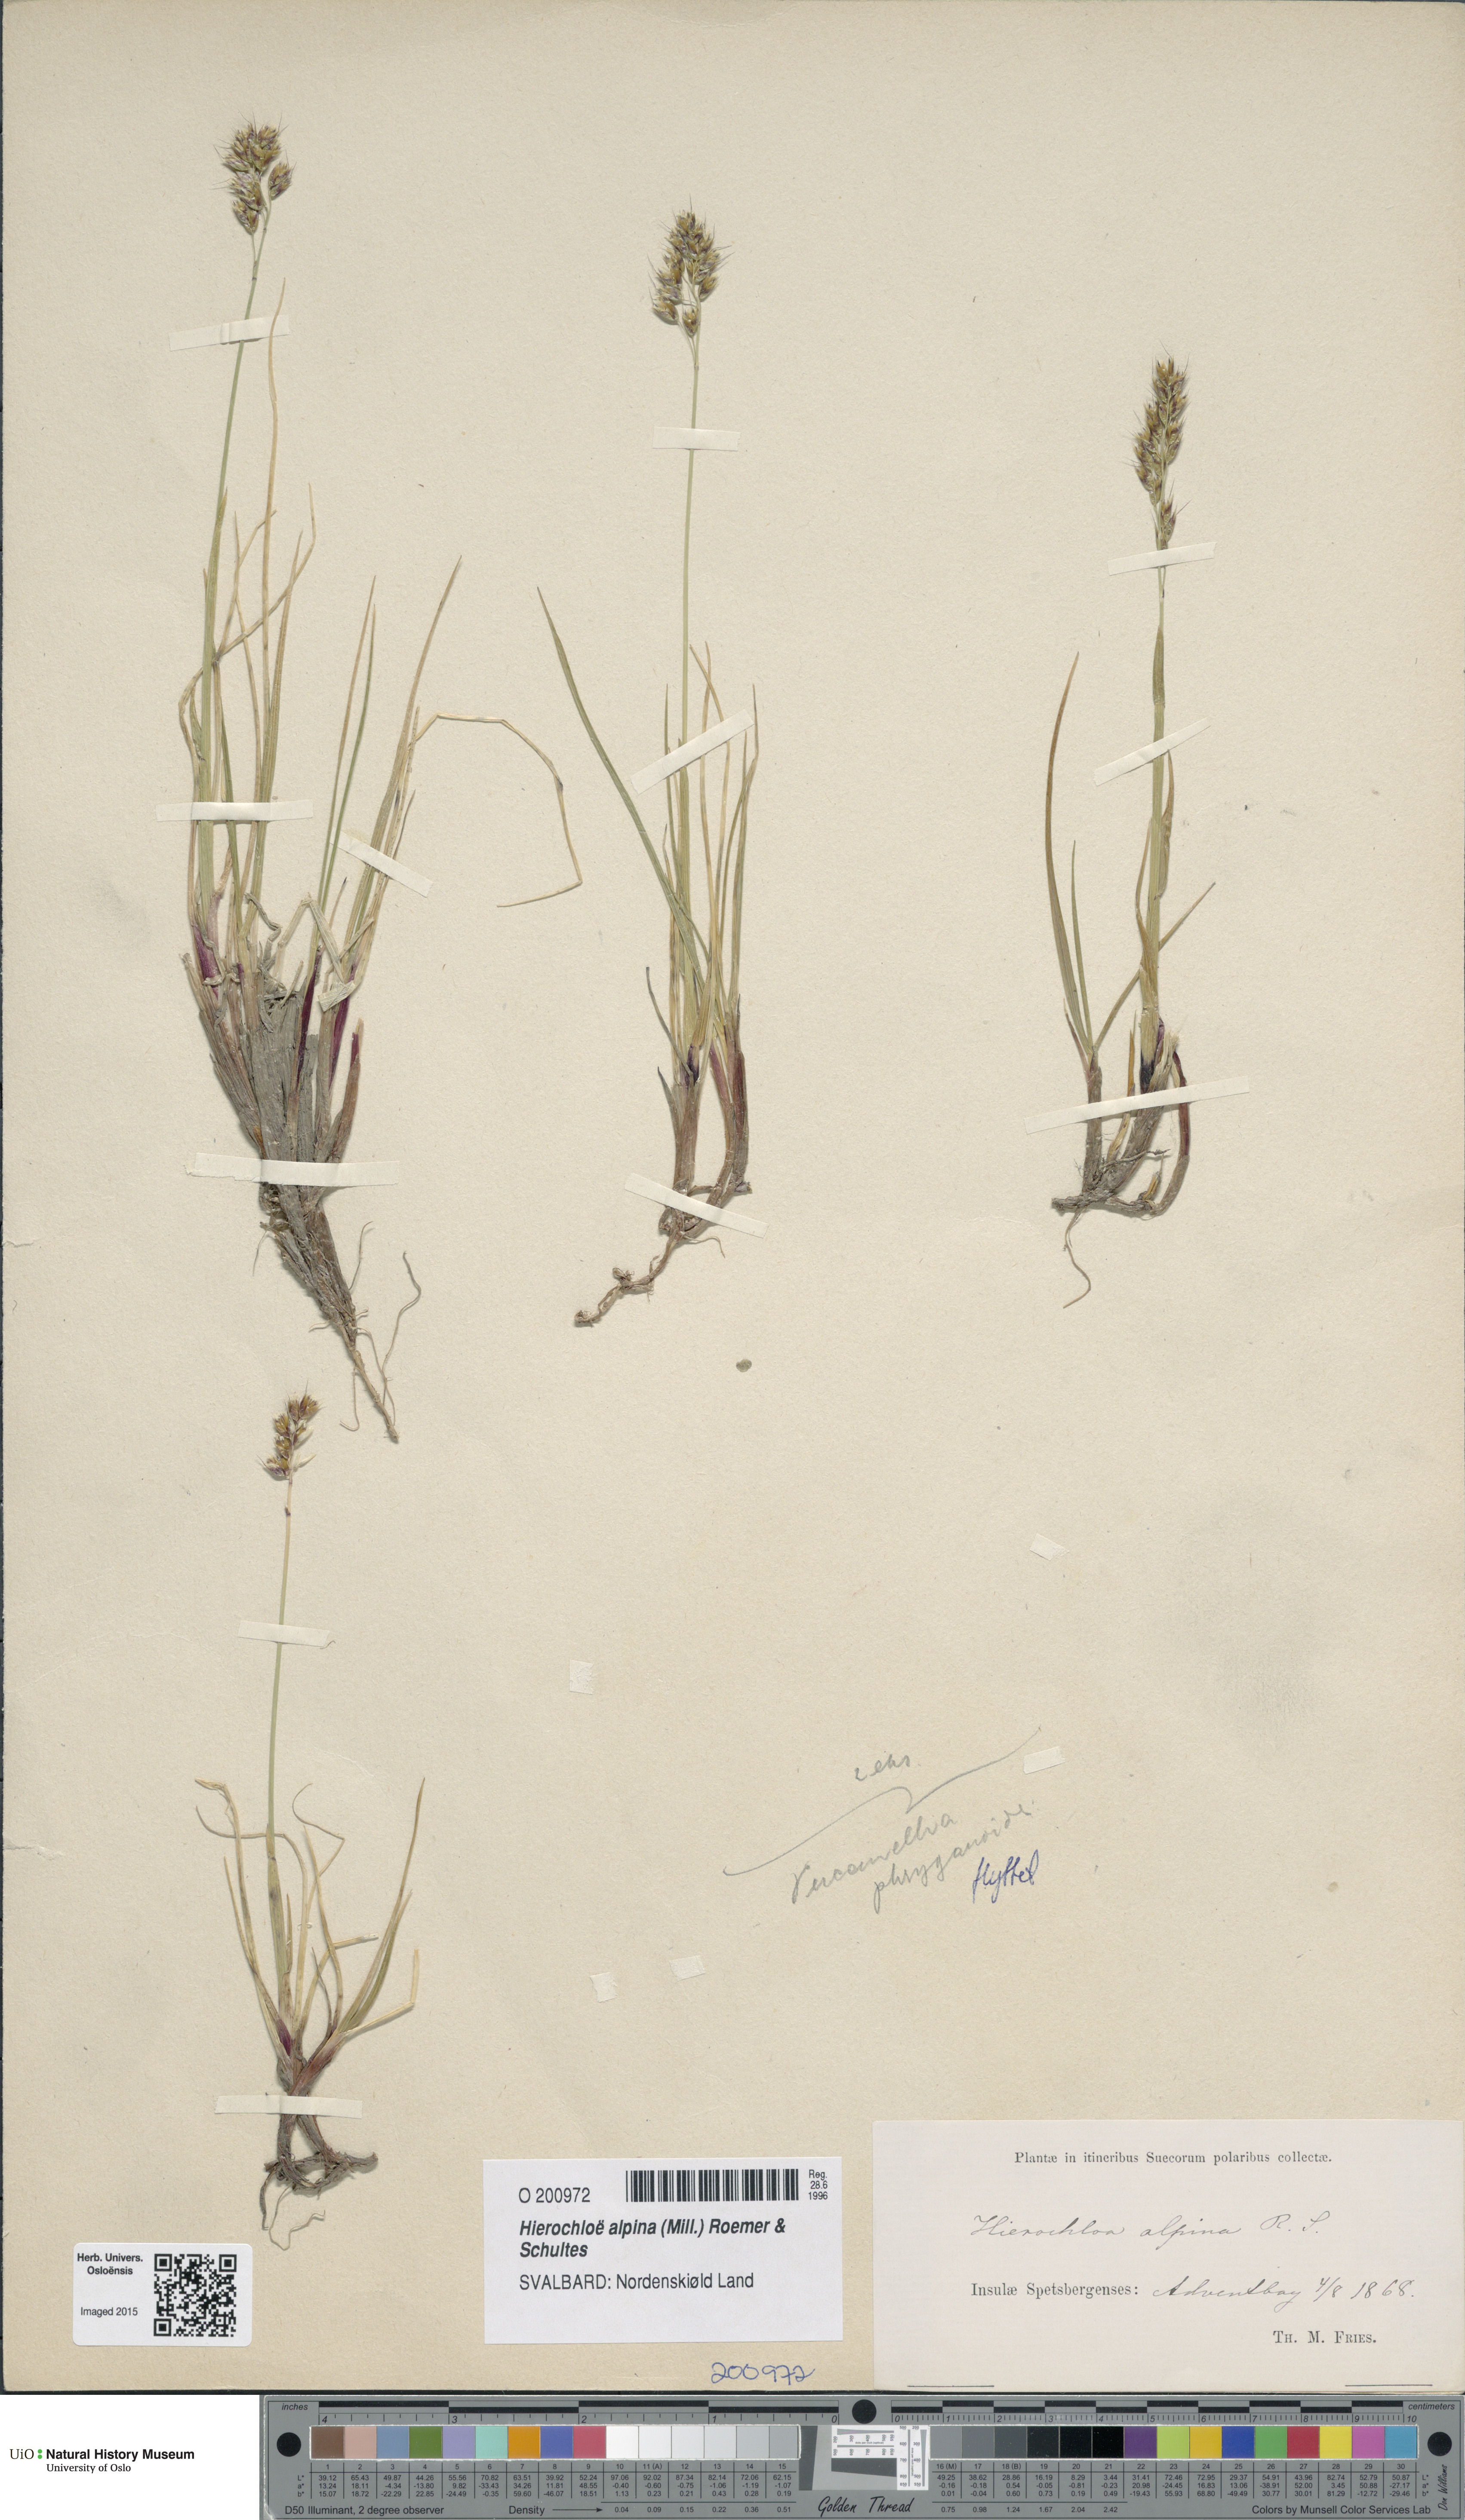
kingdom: Plantae
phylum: Tracheophyta
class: Liliopsida
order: Poales
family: Poaceae
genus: Anthoxanthum
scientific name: Anthoxanthum monticola
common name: Alpine sweetgrass
